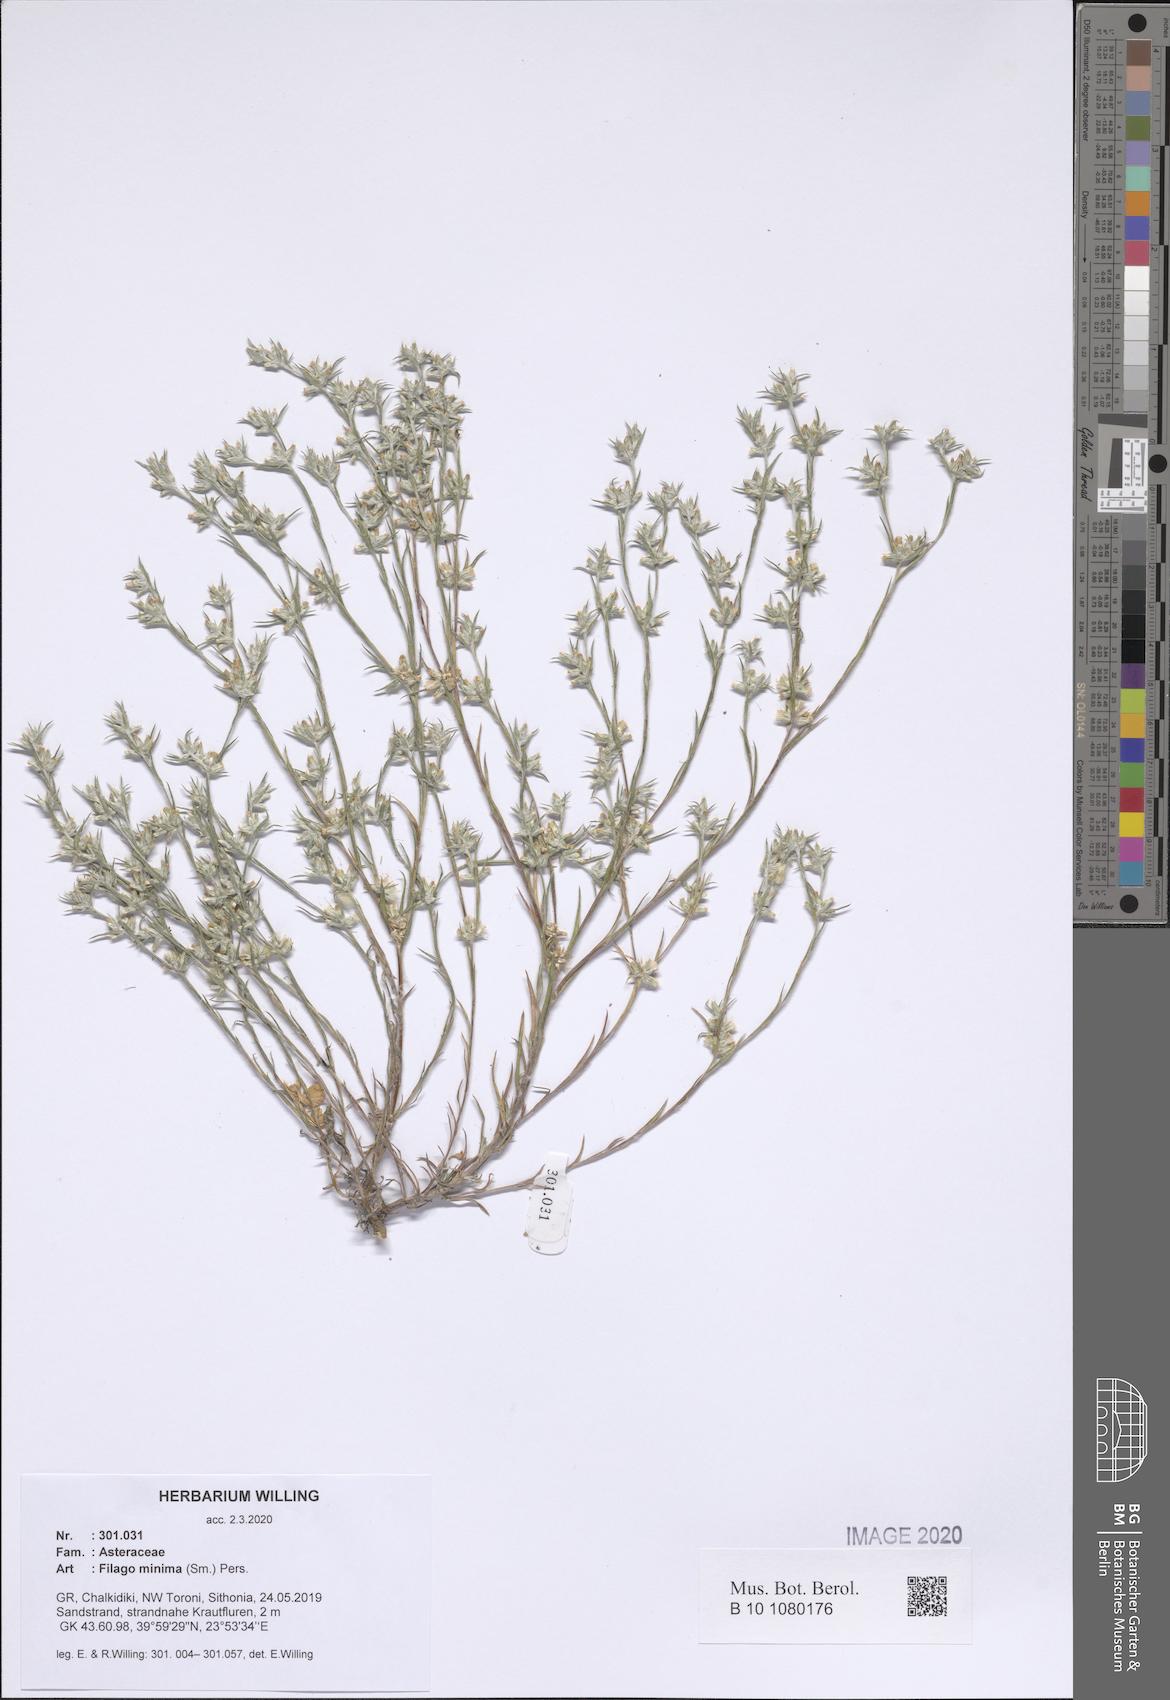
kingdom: Plantae
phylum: Tracheophyta
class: Magnoliopsida
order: Asterales
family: Asteraceae
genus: Logfia
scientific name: Logfia minima
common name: Little cottonrose
